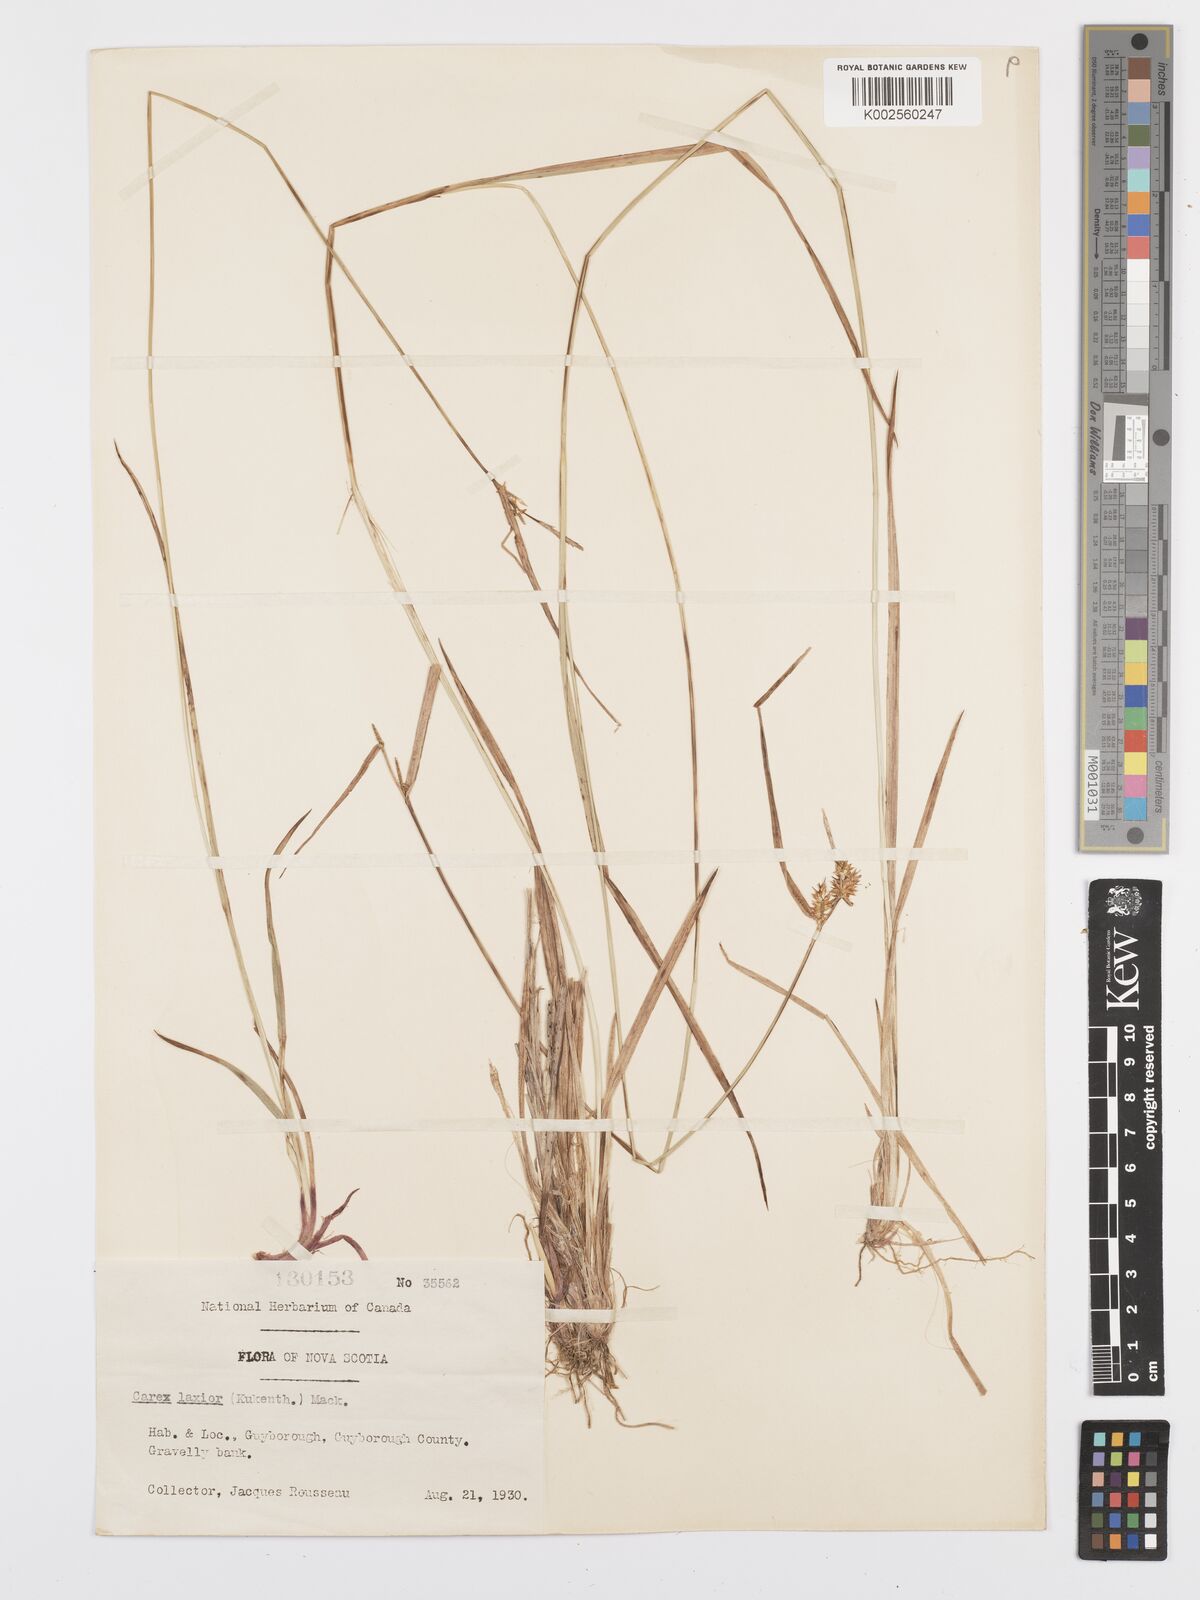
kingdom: Plantae
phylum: Tracheophyta
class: Liliopsida
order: Poales
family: Cyperaceae
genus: Carex
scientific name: Carex flava
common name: Large yellow-sedge
